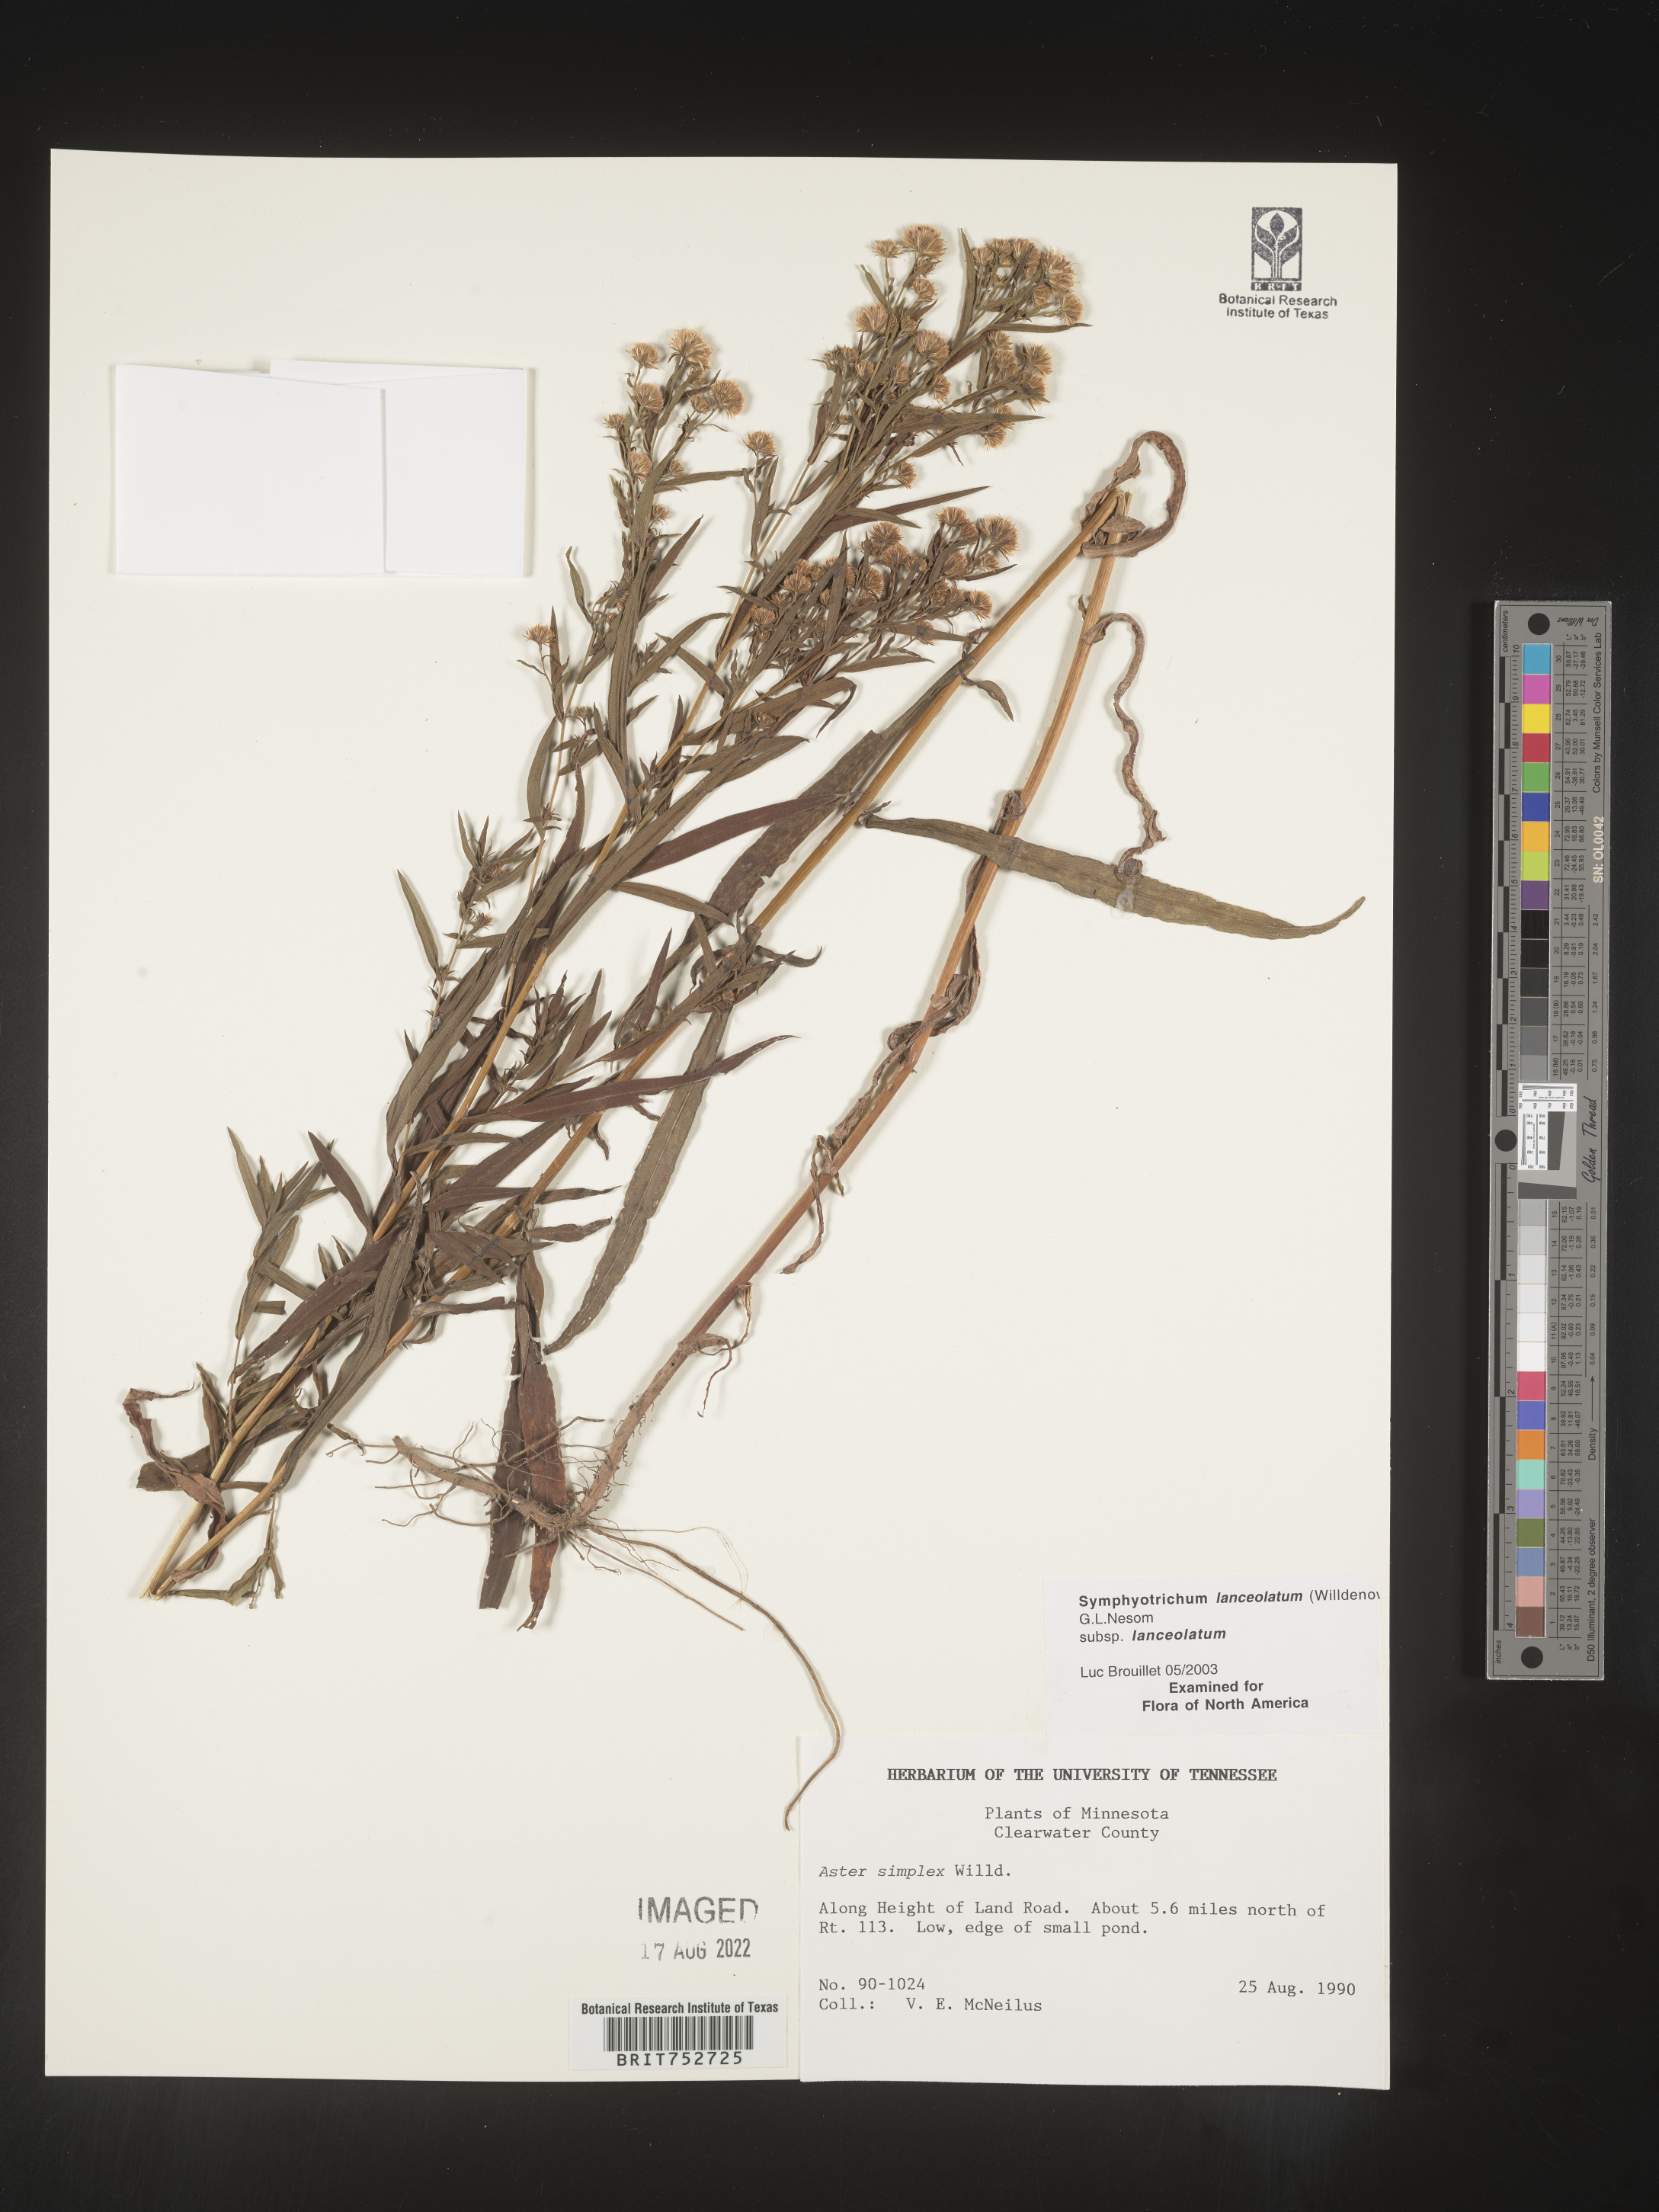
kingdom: Plantae
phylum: Tracheophyta
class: Magnoliopsida
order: Asterales
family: Asteraceae
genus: Symphyotrichum
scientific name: Symphyotrichum lanceolatum
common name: Panicled aster
